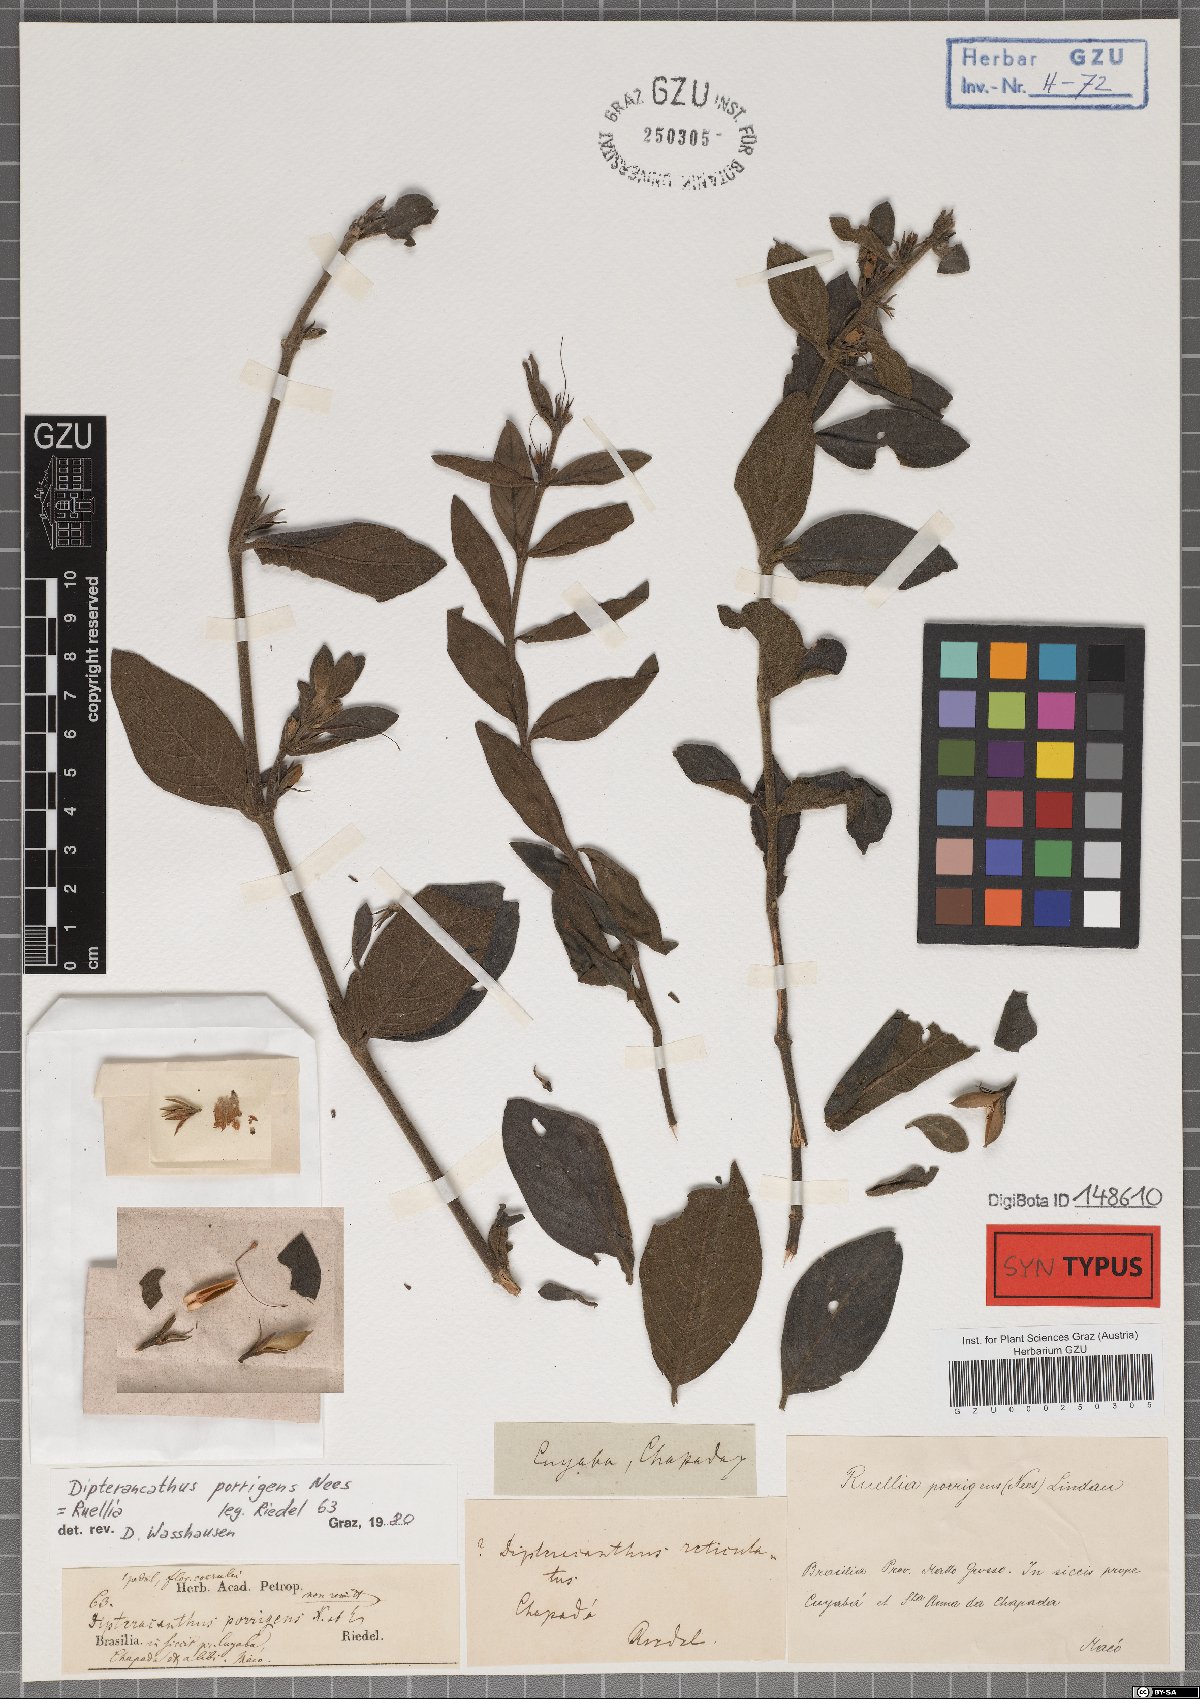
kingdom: Plantae
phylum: Tracheophyta
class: Magnoliopsida
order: Lamiales
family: Acanthaceae
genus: Ruellia
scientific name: Ruellia geminiflora
